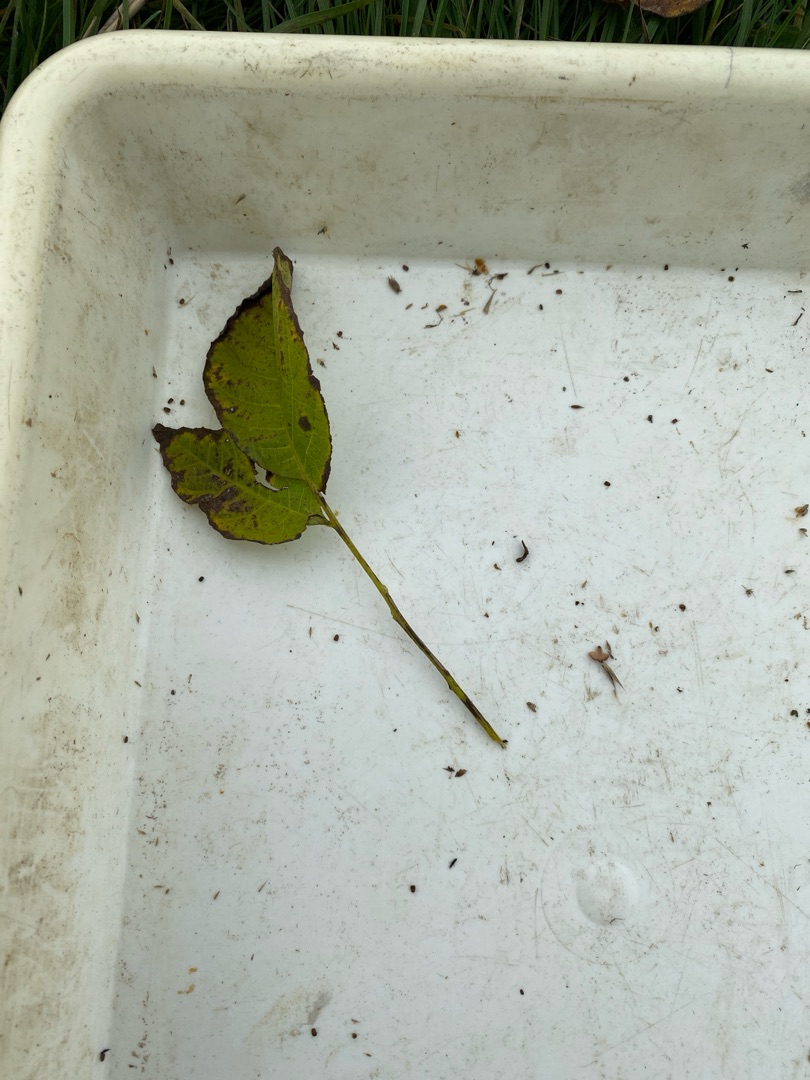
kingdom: Plantae
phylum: Tracheophyta
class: Magnoliopsida
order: Fagales
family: Juglandaceae
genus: Juglans
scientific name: Juglans regia
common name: Almindelig valnød
